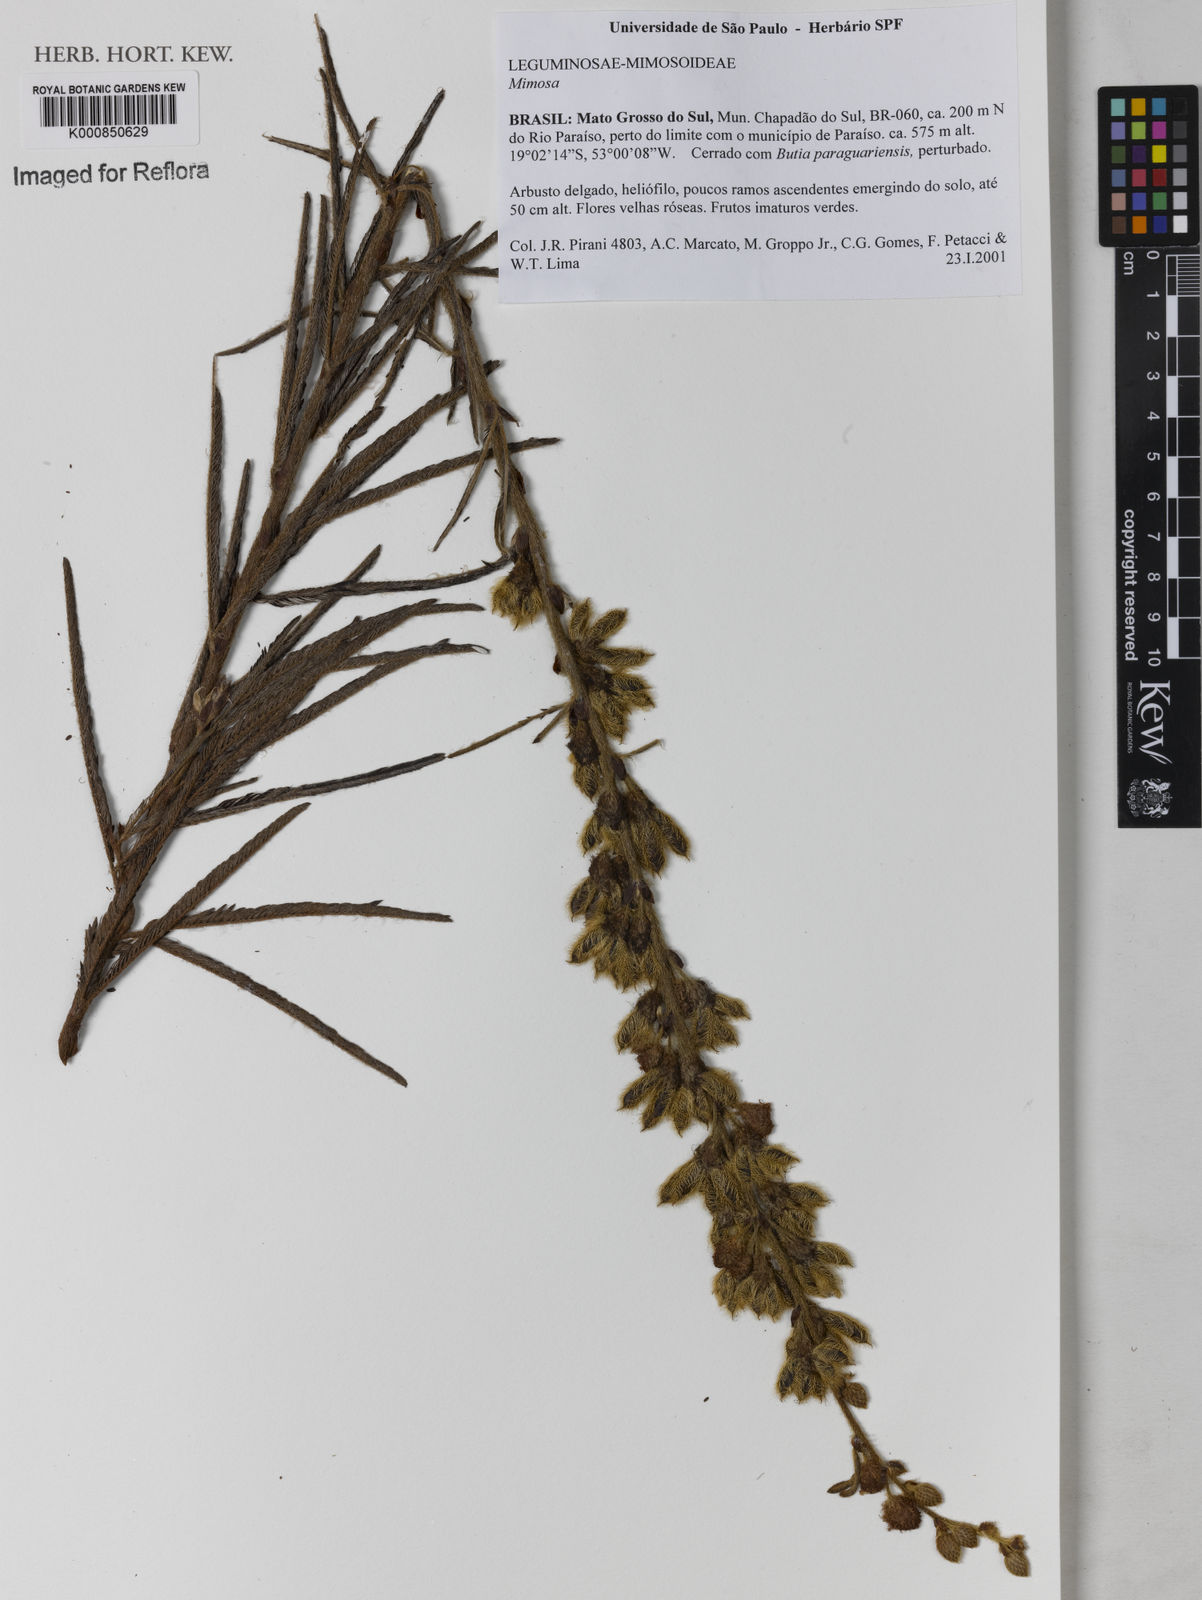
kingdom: Plantae
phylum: Tracheophyta
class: Magnoliopsida
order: Fabales
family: Fabaceae
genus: Mimosa
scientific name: Mimosa
